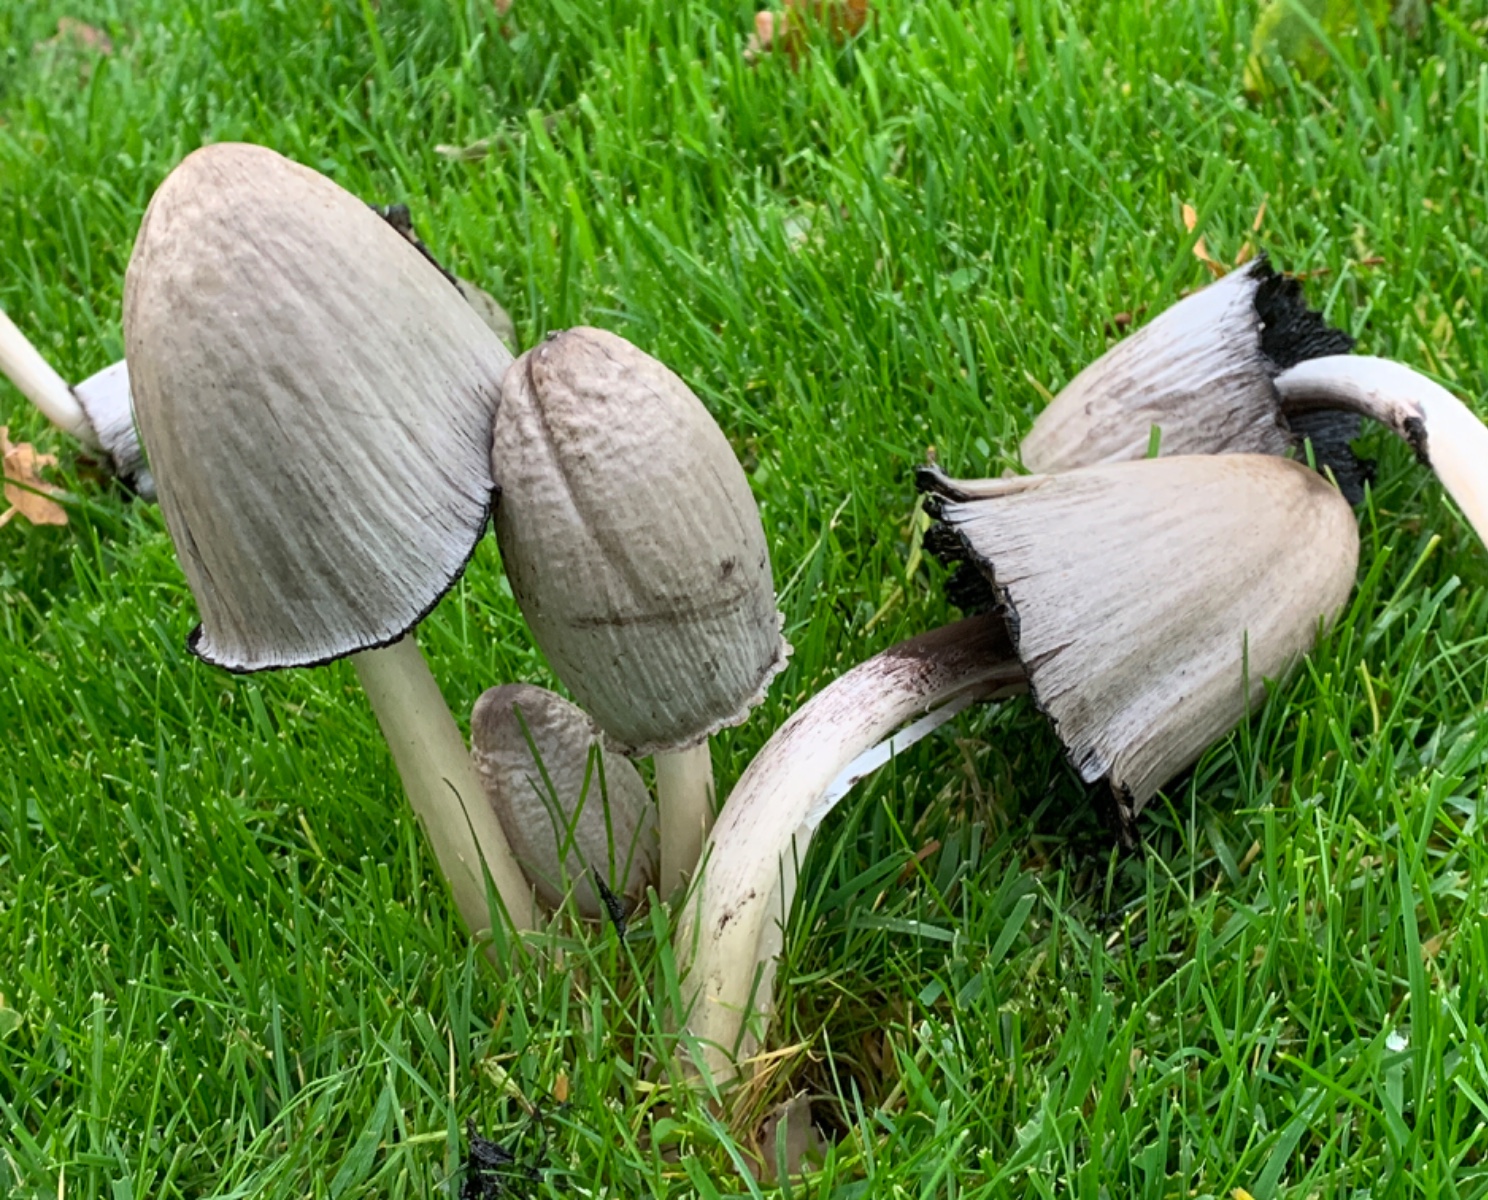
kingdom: Fungi
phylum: Basidiomycota
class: Agaricomycetes
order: Agaricales
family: Psathyrellaceae
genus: Coprinopsis
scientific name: Coprinopsis atramentaria
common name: almindelig blækhat
